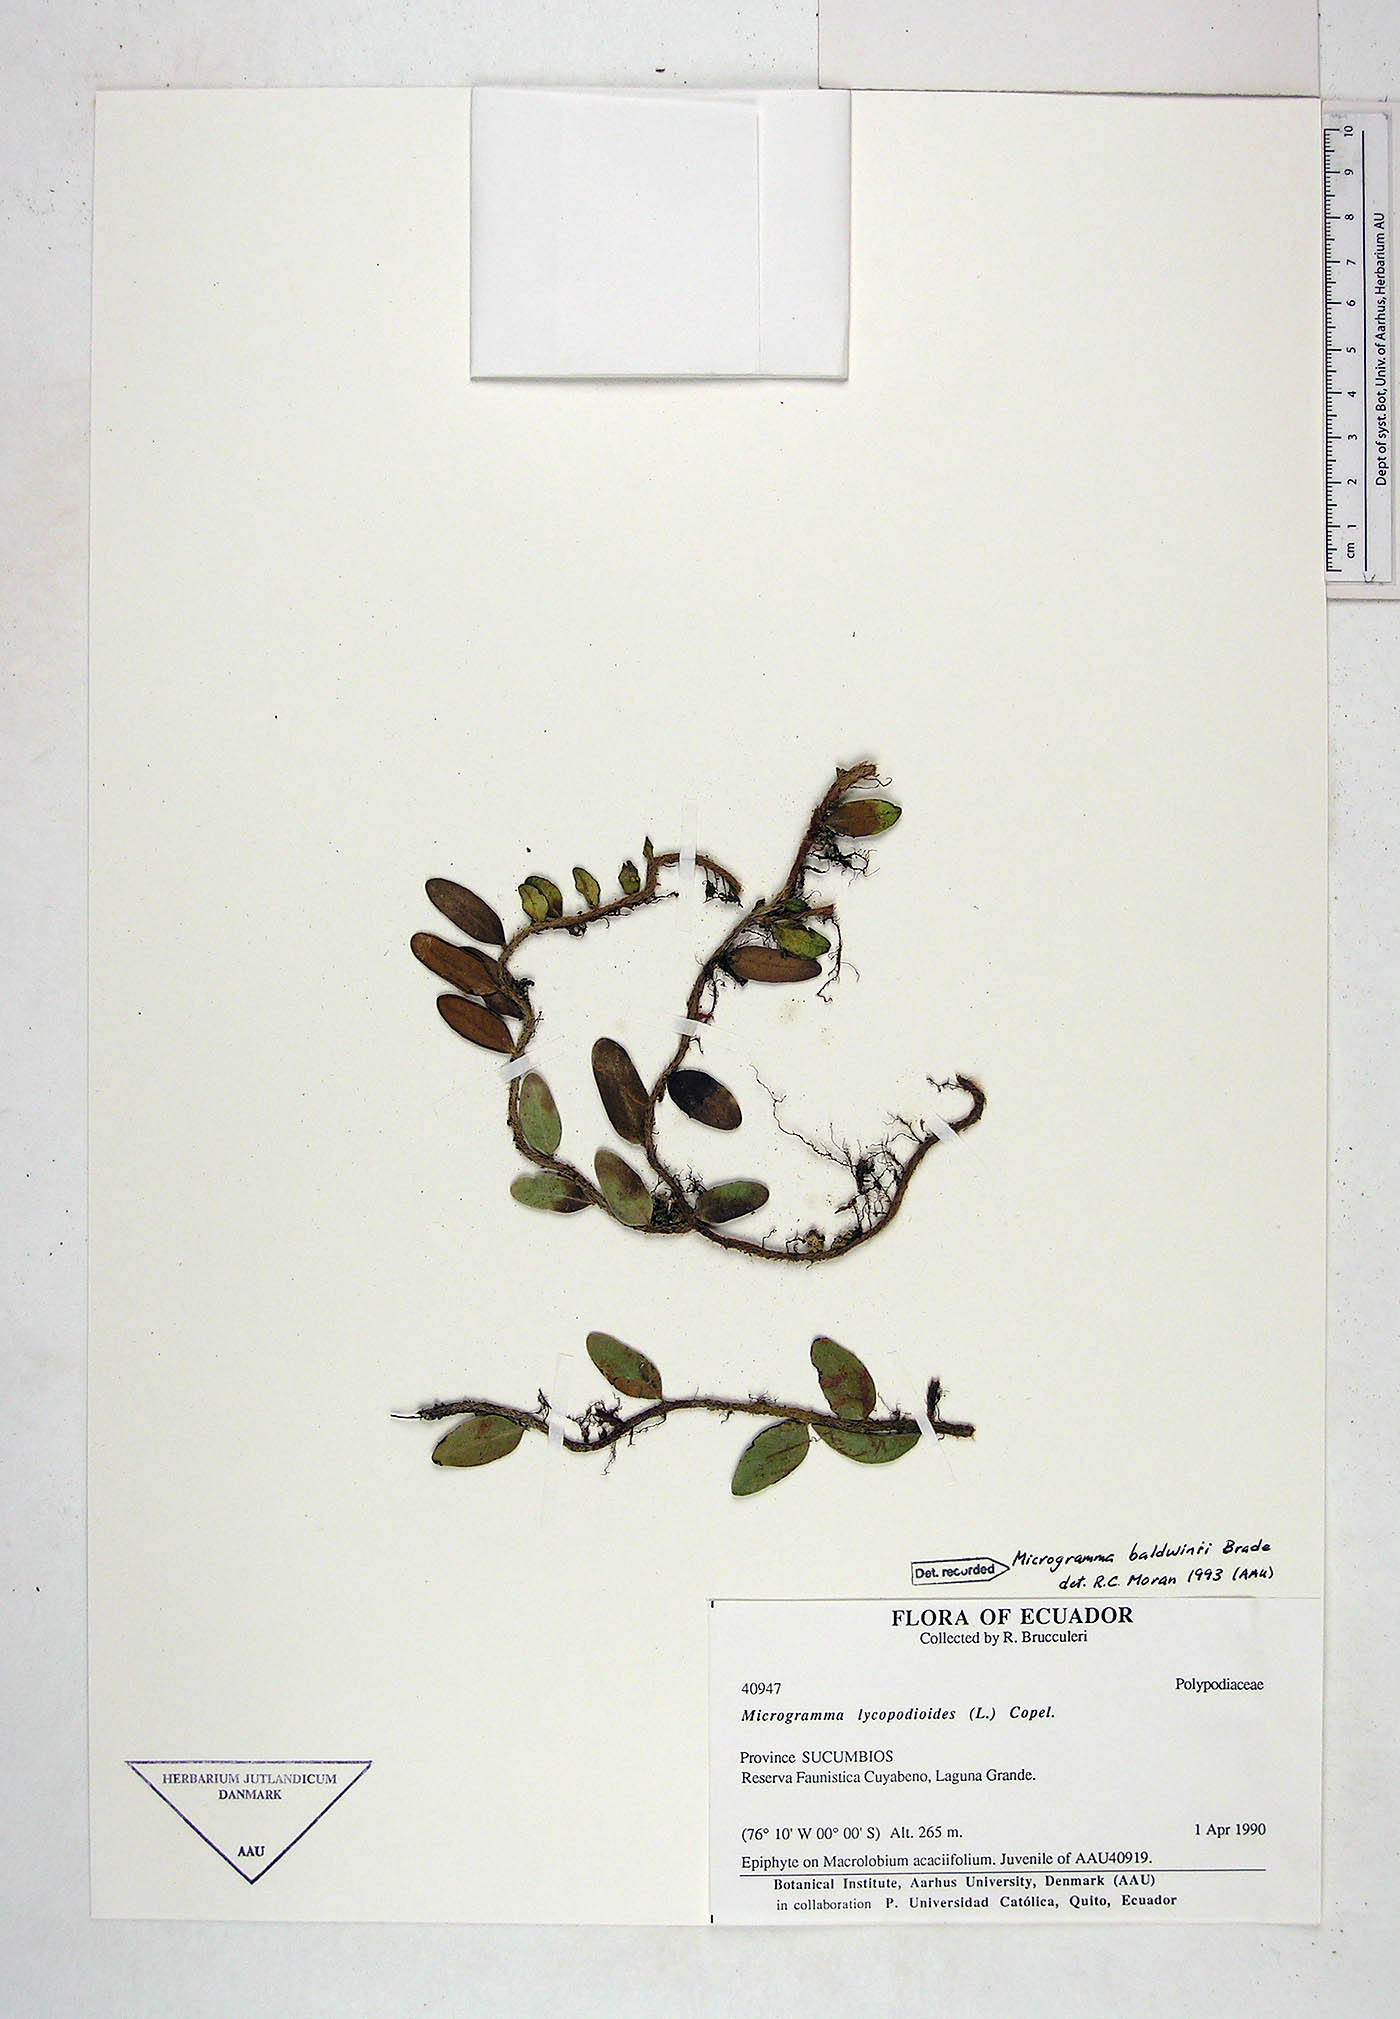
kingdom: Plantae
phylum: Tracheophyta
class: Polypodiopsida
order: Polypodiales
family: Polypodiaceae
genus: Microgramma
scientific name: Microgramma baldwinii
